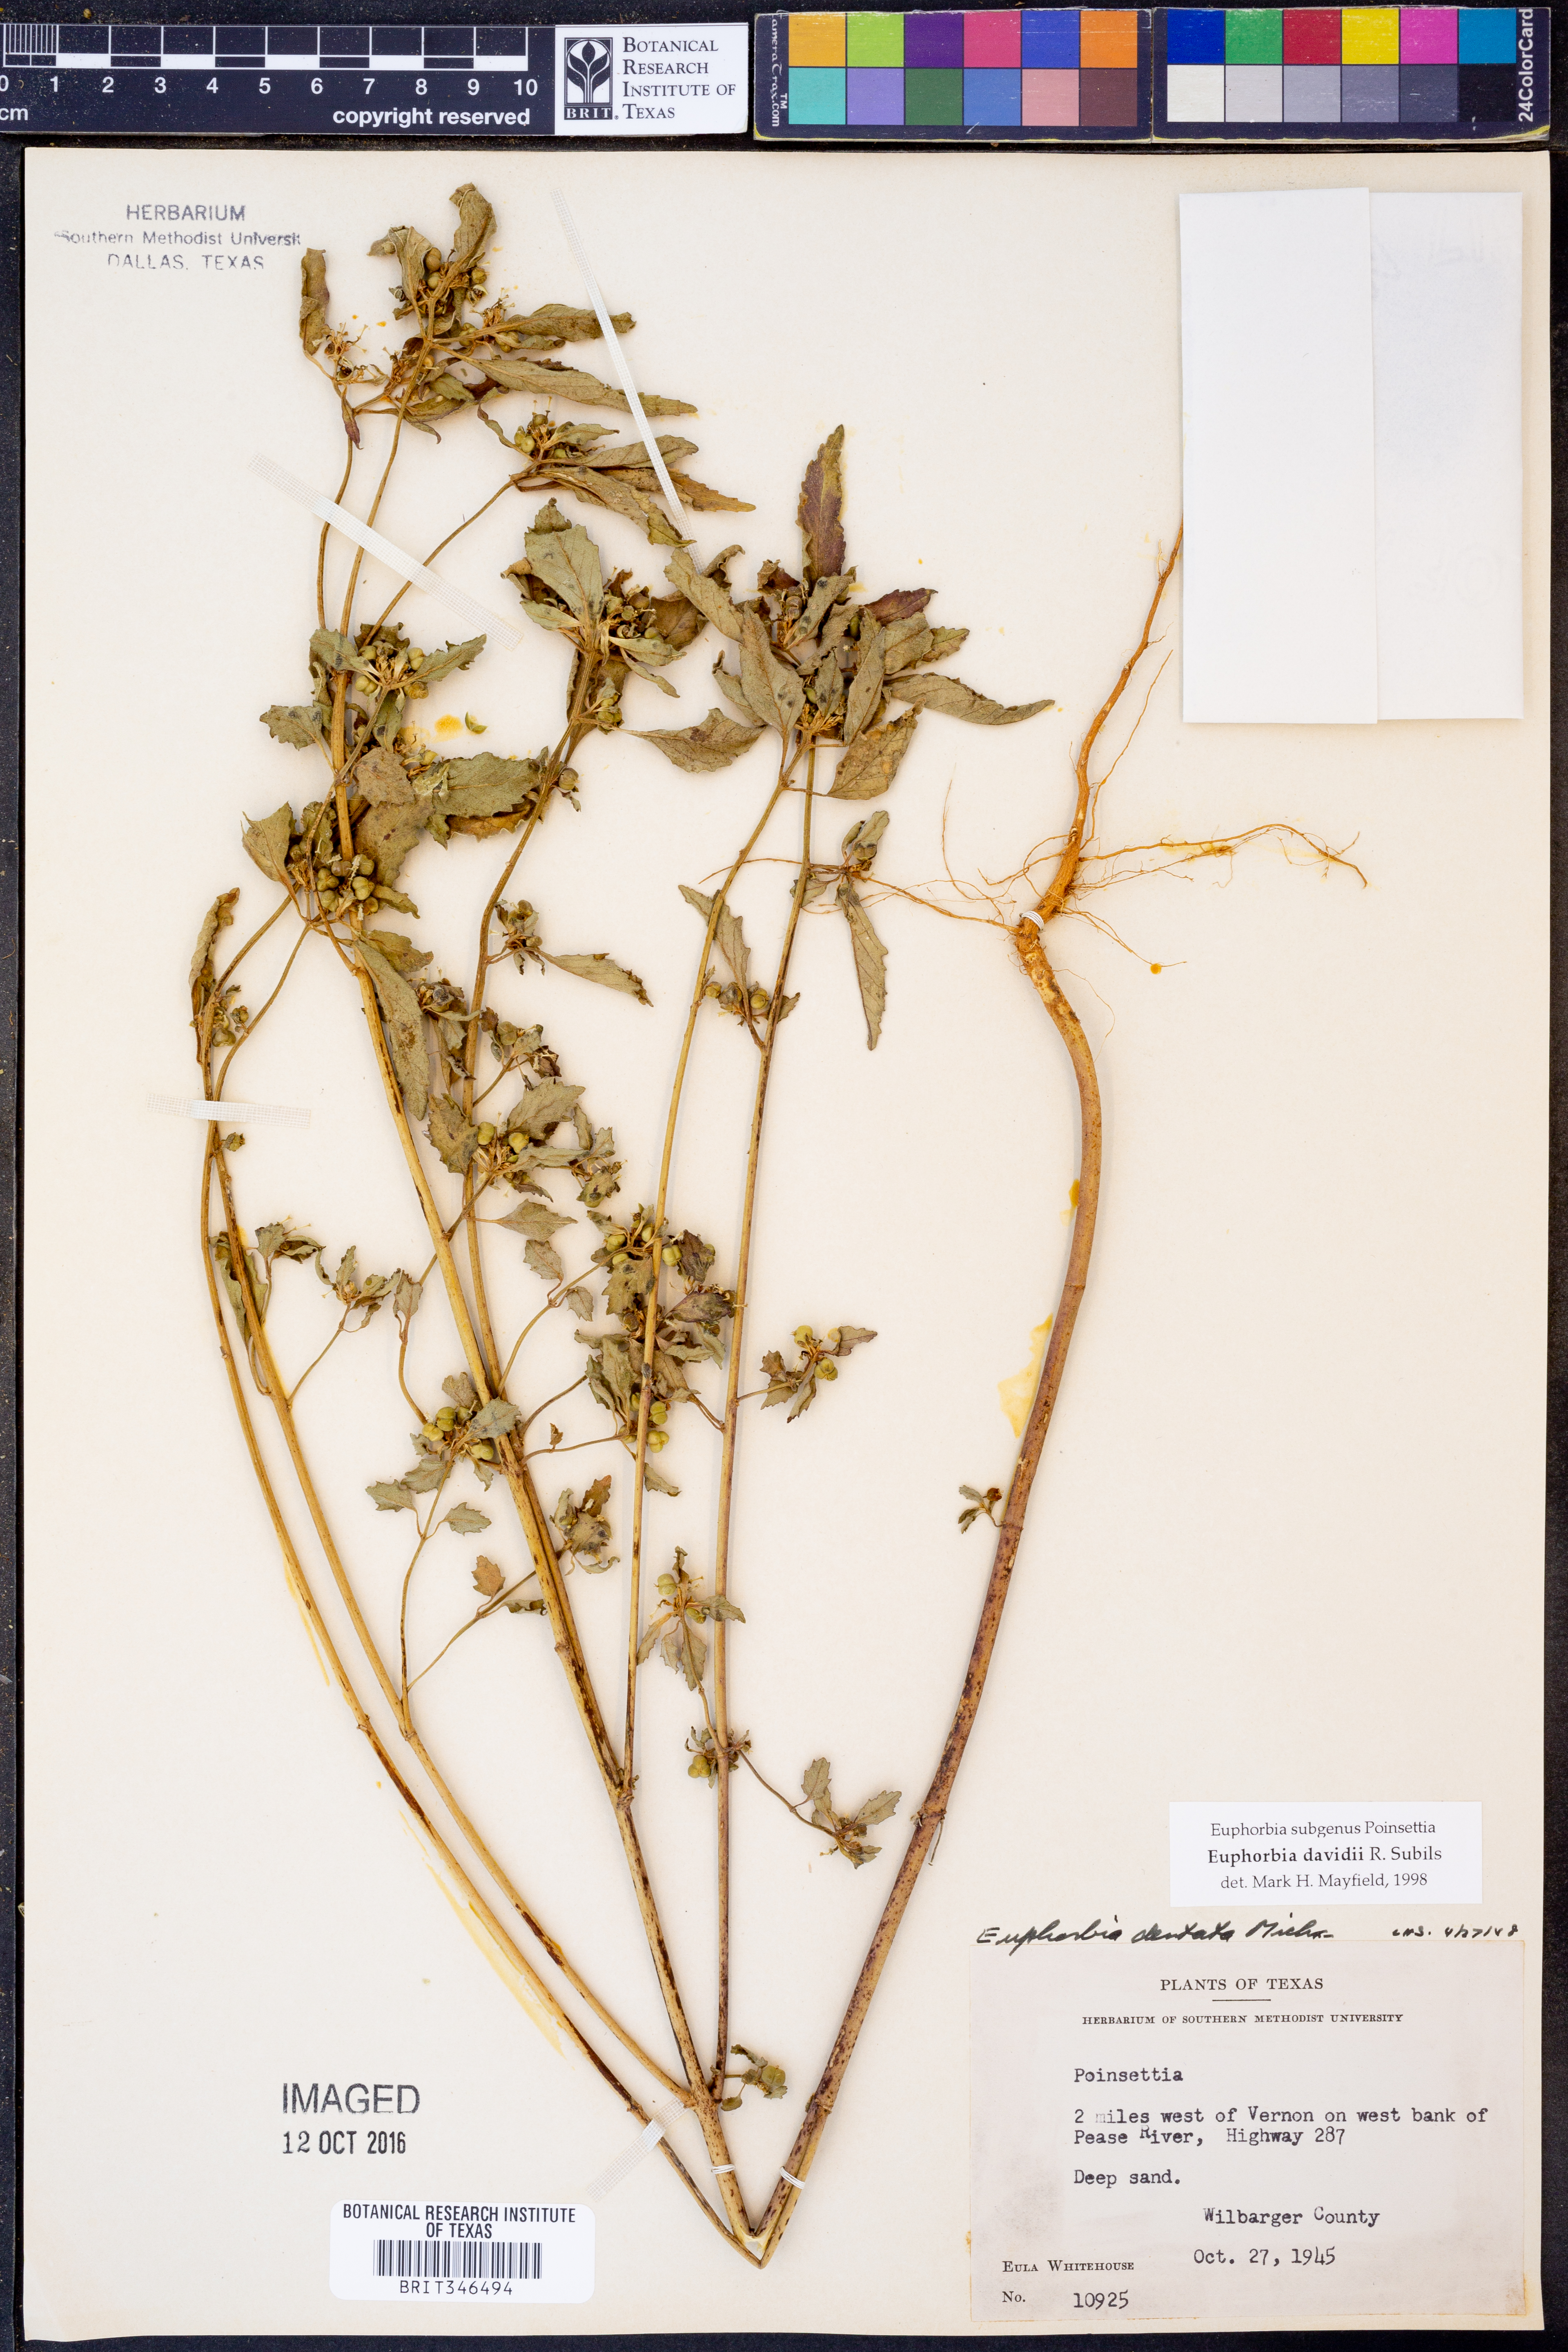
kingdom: Plantae
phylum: Tracheophyta
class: Magnoliopsida
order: Malpighiales
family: Euphorbiaceae
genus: Euphorbia
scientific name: Euphorbia davidii
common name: David's spurge
